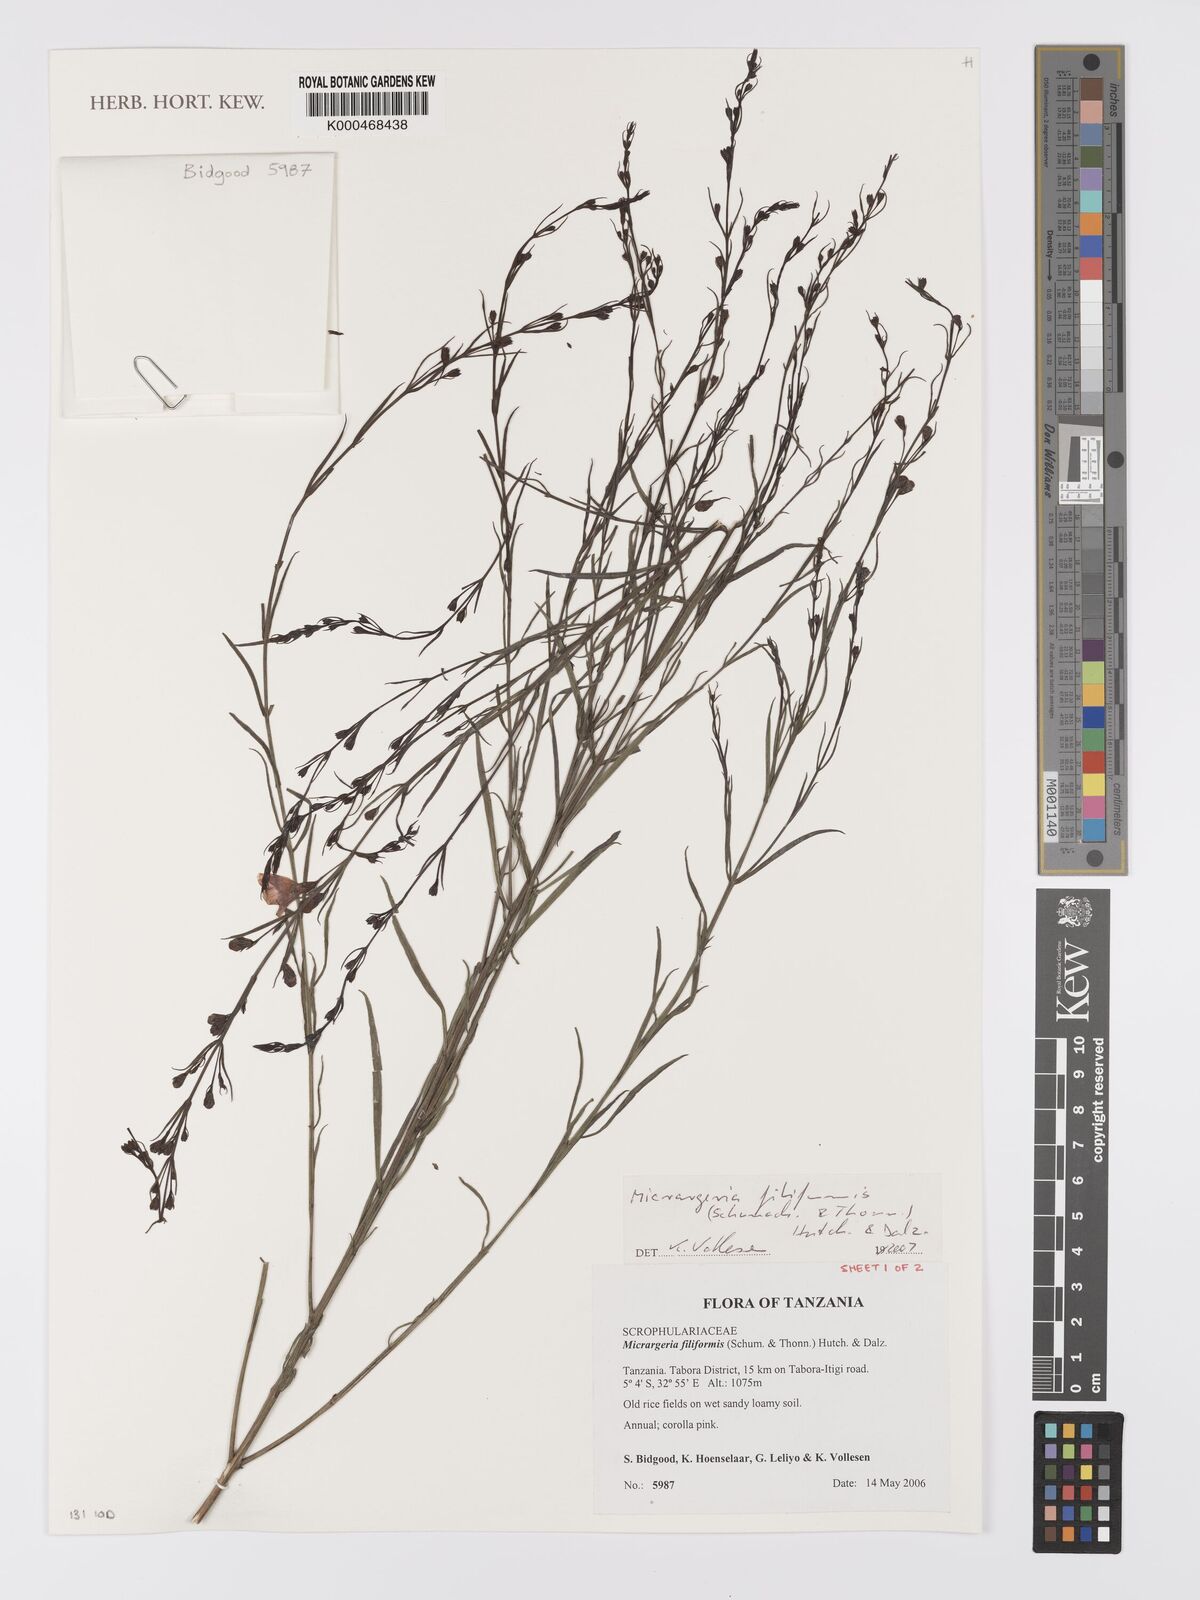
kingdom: Plantae
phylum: Tracheophyta
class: Magnoliopsida
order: Lamiales
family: Orobanchaceae
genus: Micrargeria
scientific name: Micrargeria filiformis
